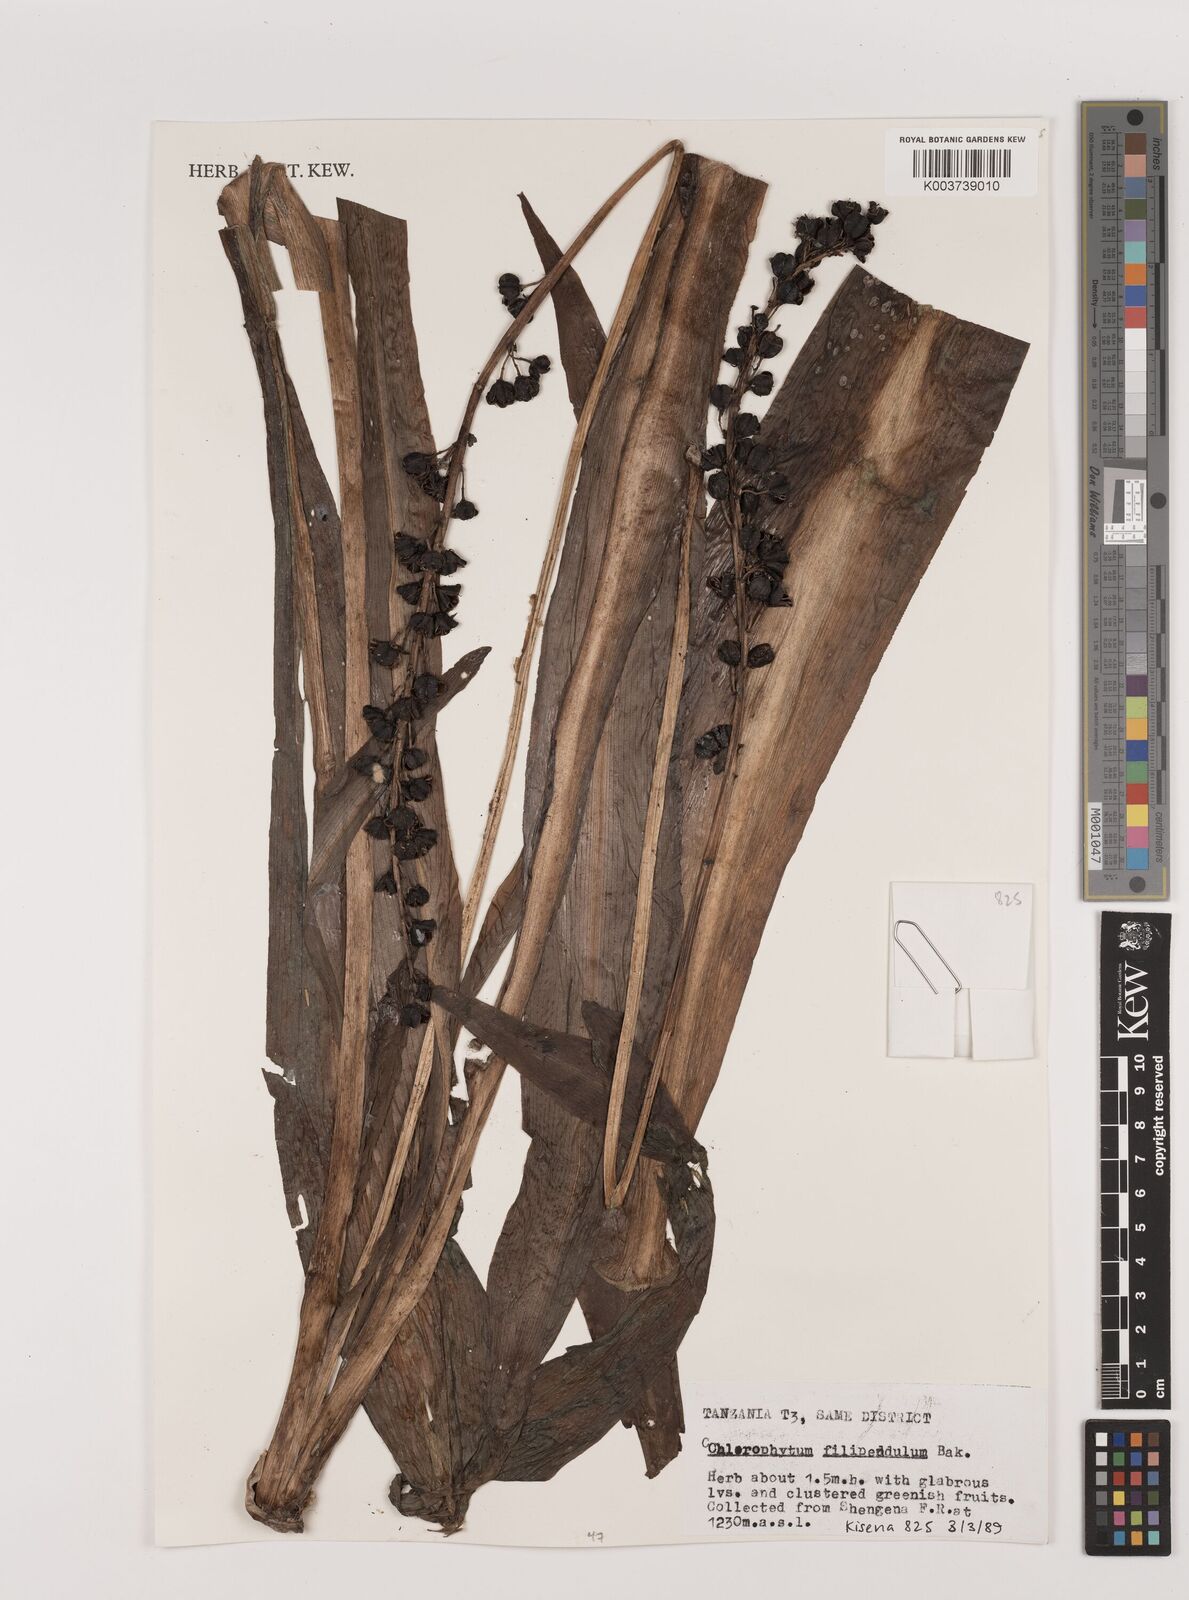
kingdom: Plantae
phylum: Tracheophyta
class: Liliopsida
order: Asparagales
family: Asparagaceae
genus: Chlorophytum
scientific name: Chlorophytum filipendulum
